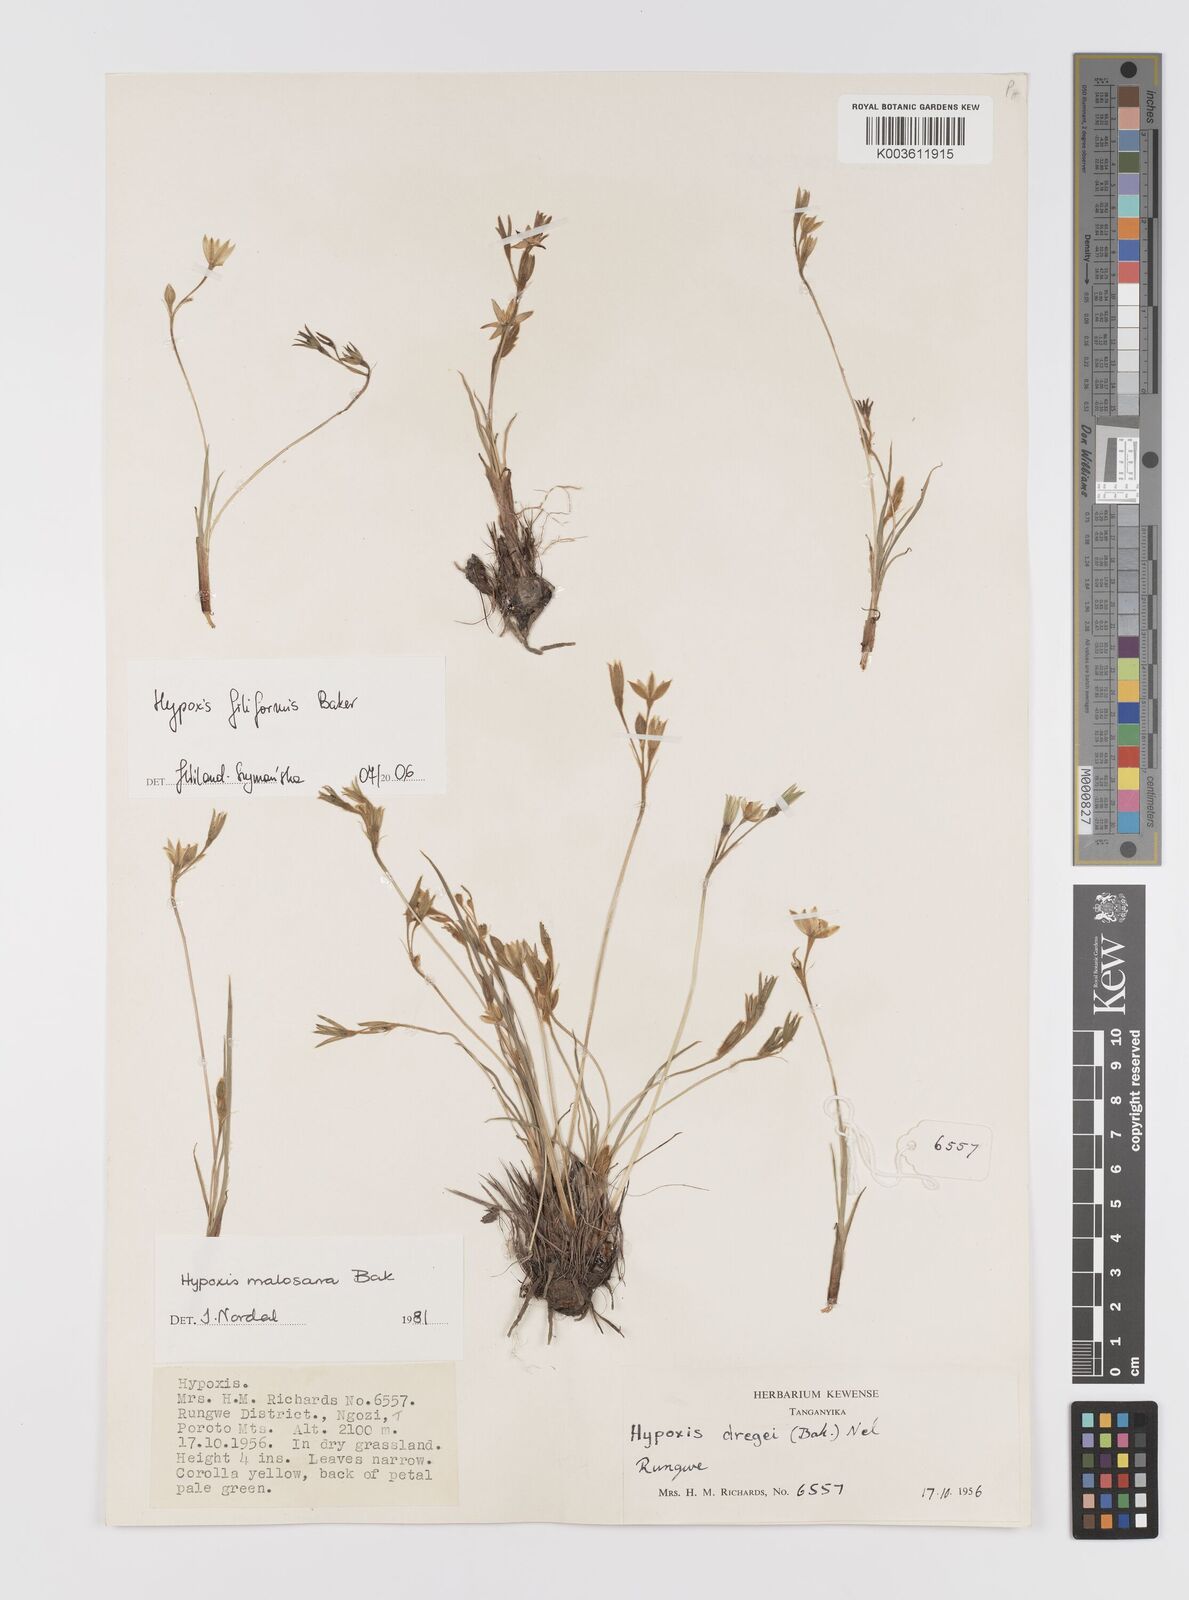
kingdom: Plantae
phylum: Tracheophyta
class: Liliopsida
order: Asparagales
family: Hypoxidaceae
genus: Hypoxis
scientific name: Hypoxis filiformis
